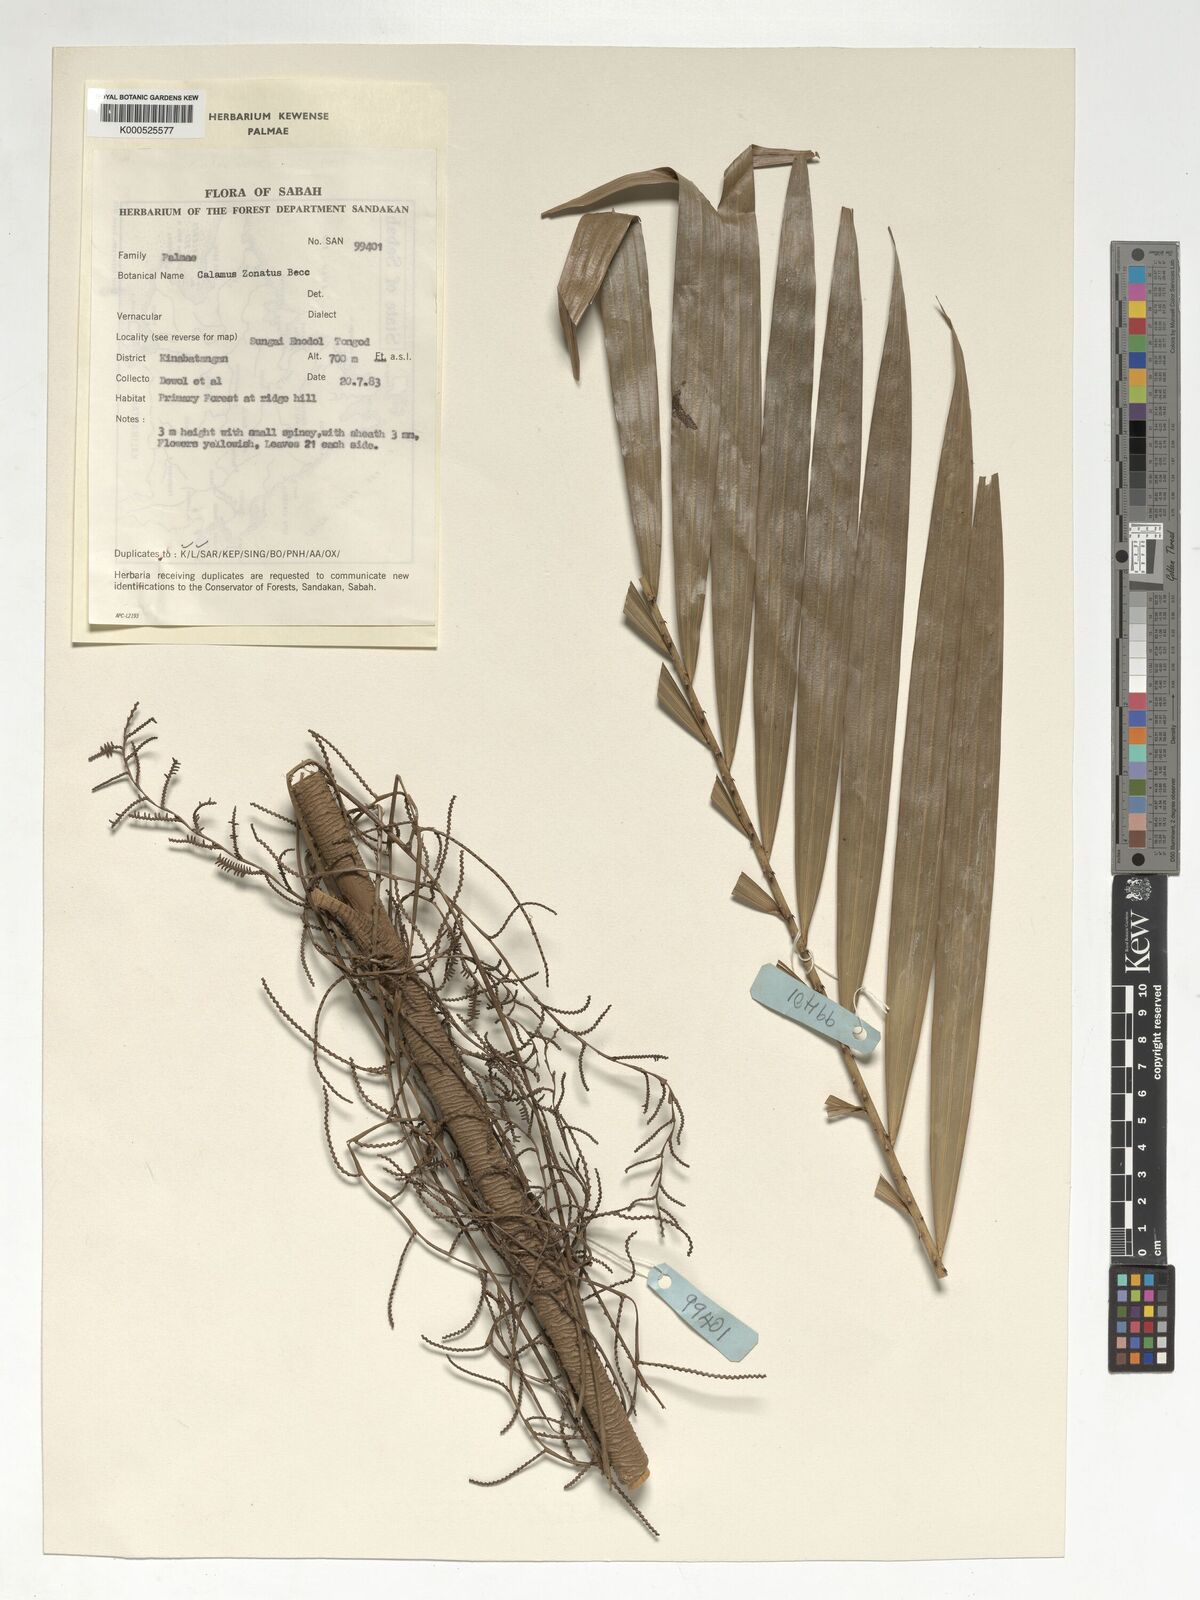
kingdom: Plantae
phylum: Tracheophyta
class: Liliopsida
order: Arecales
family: Arecaceae
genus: Calamus
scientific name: Calamus zonatus
